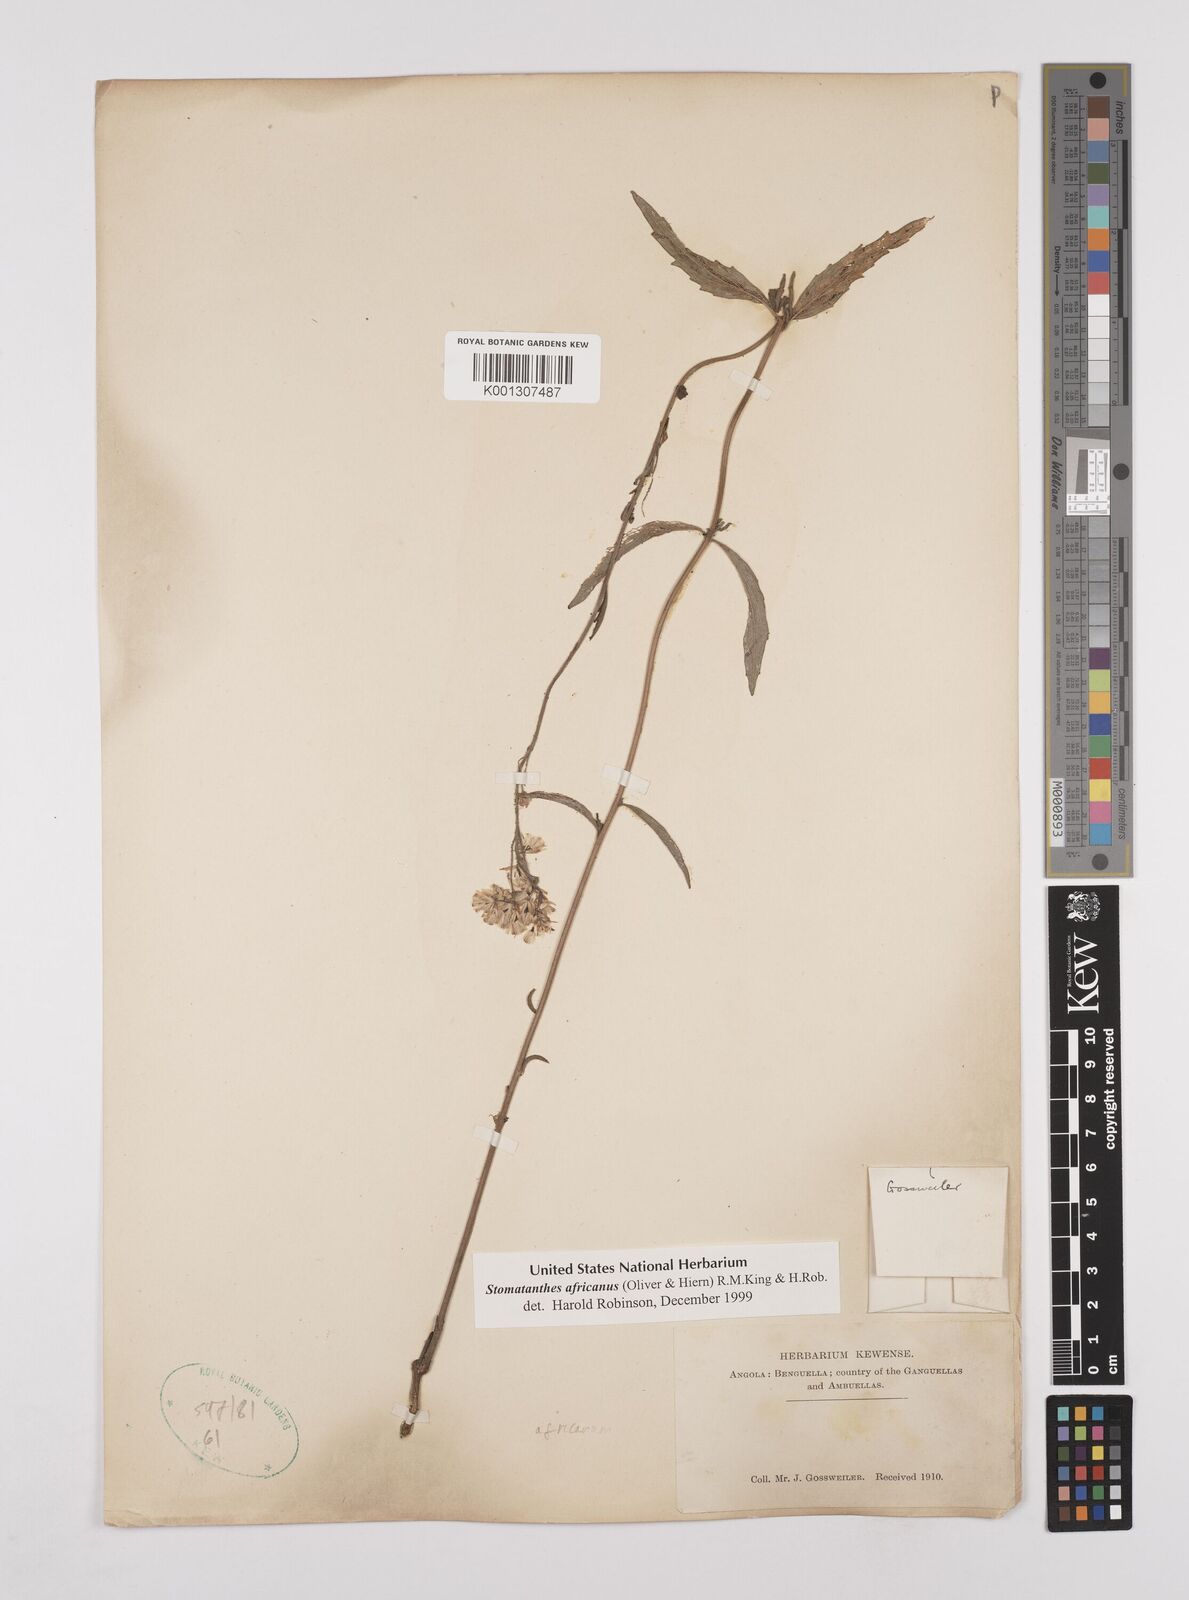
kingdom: Plantae
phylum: Tracheophyta
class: Magnoliopsida
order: Asterales
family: Asteraceae
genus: Stomatanthes
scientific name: Stomatanthes africanus
